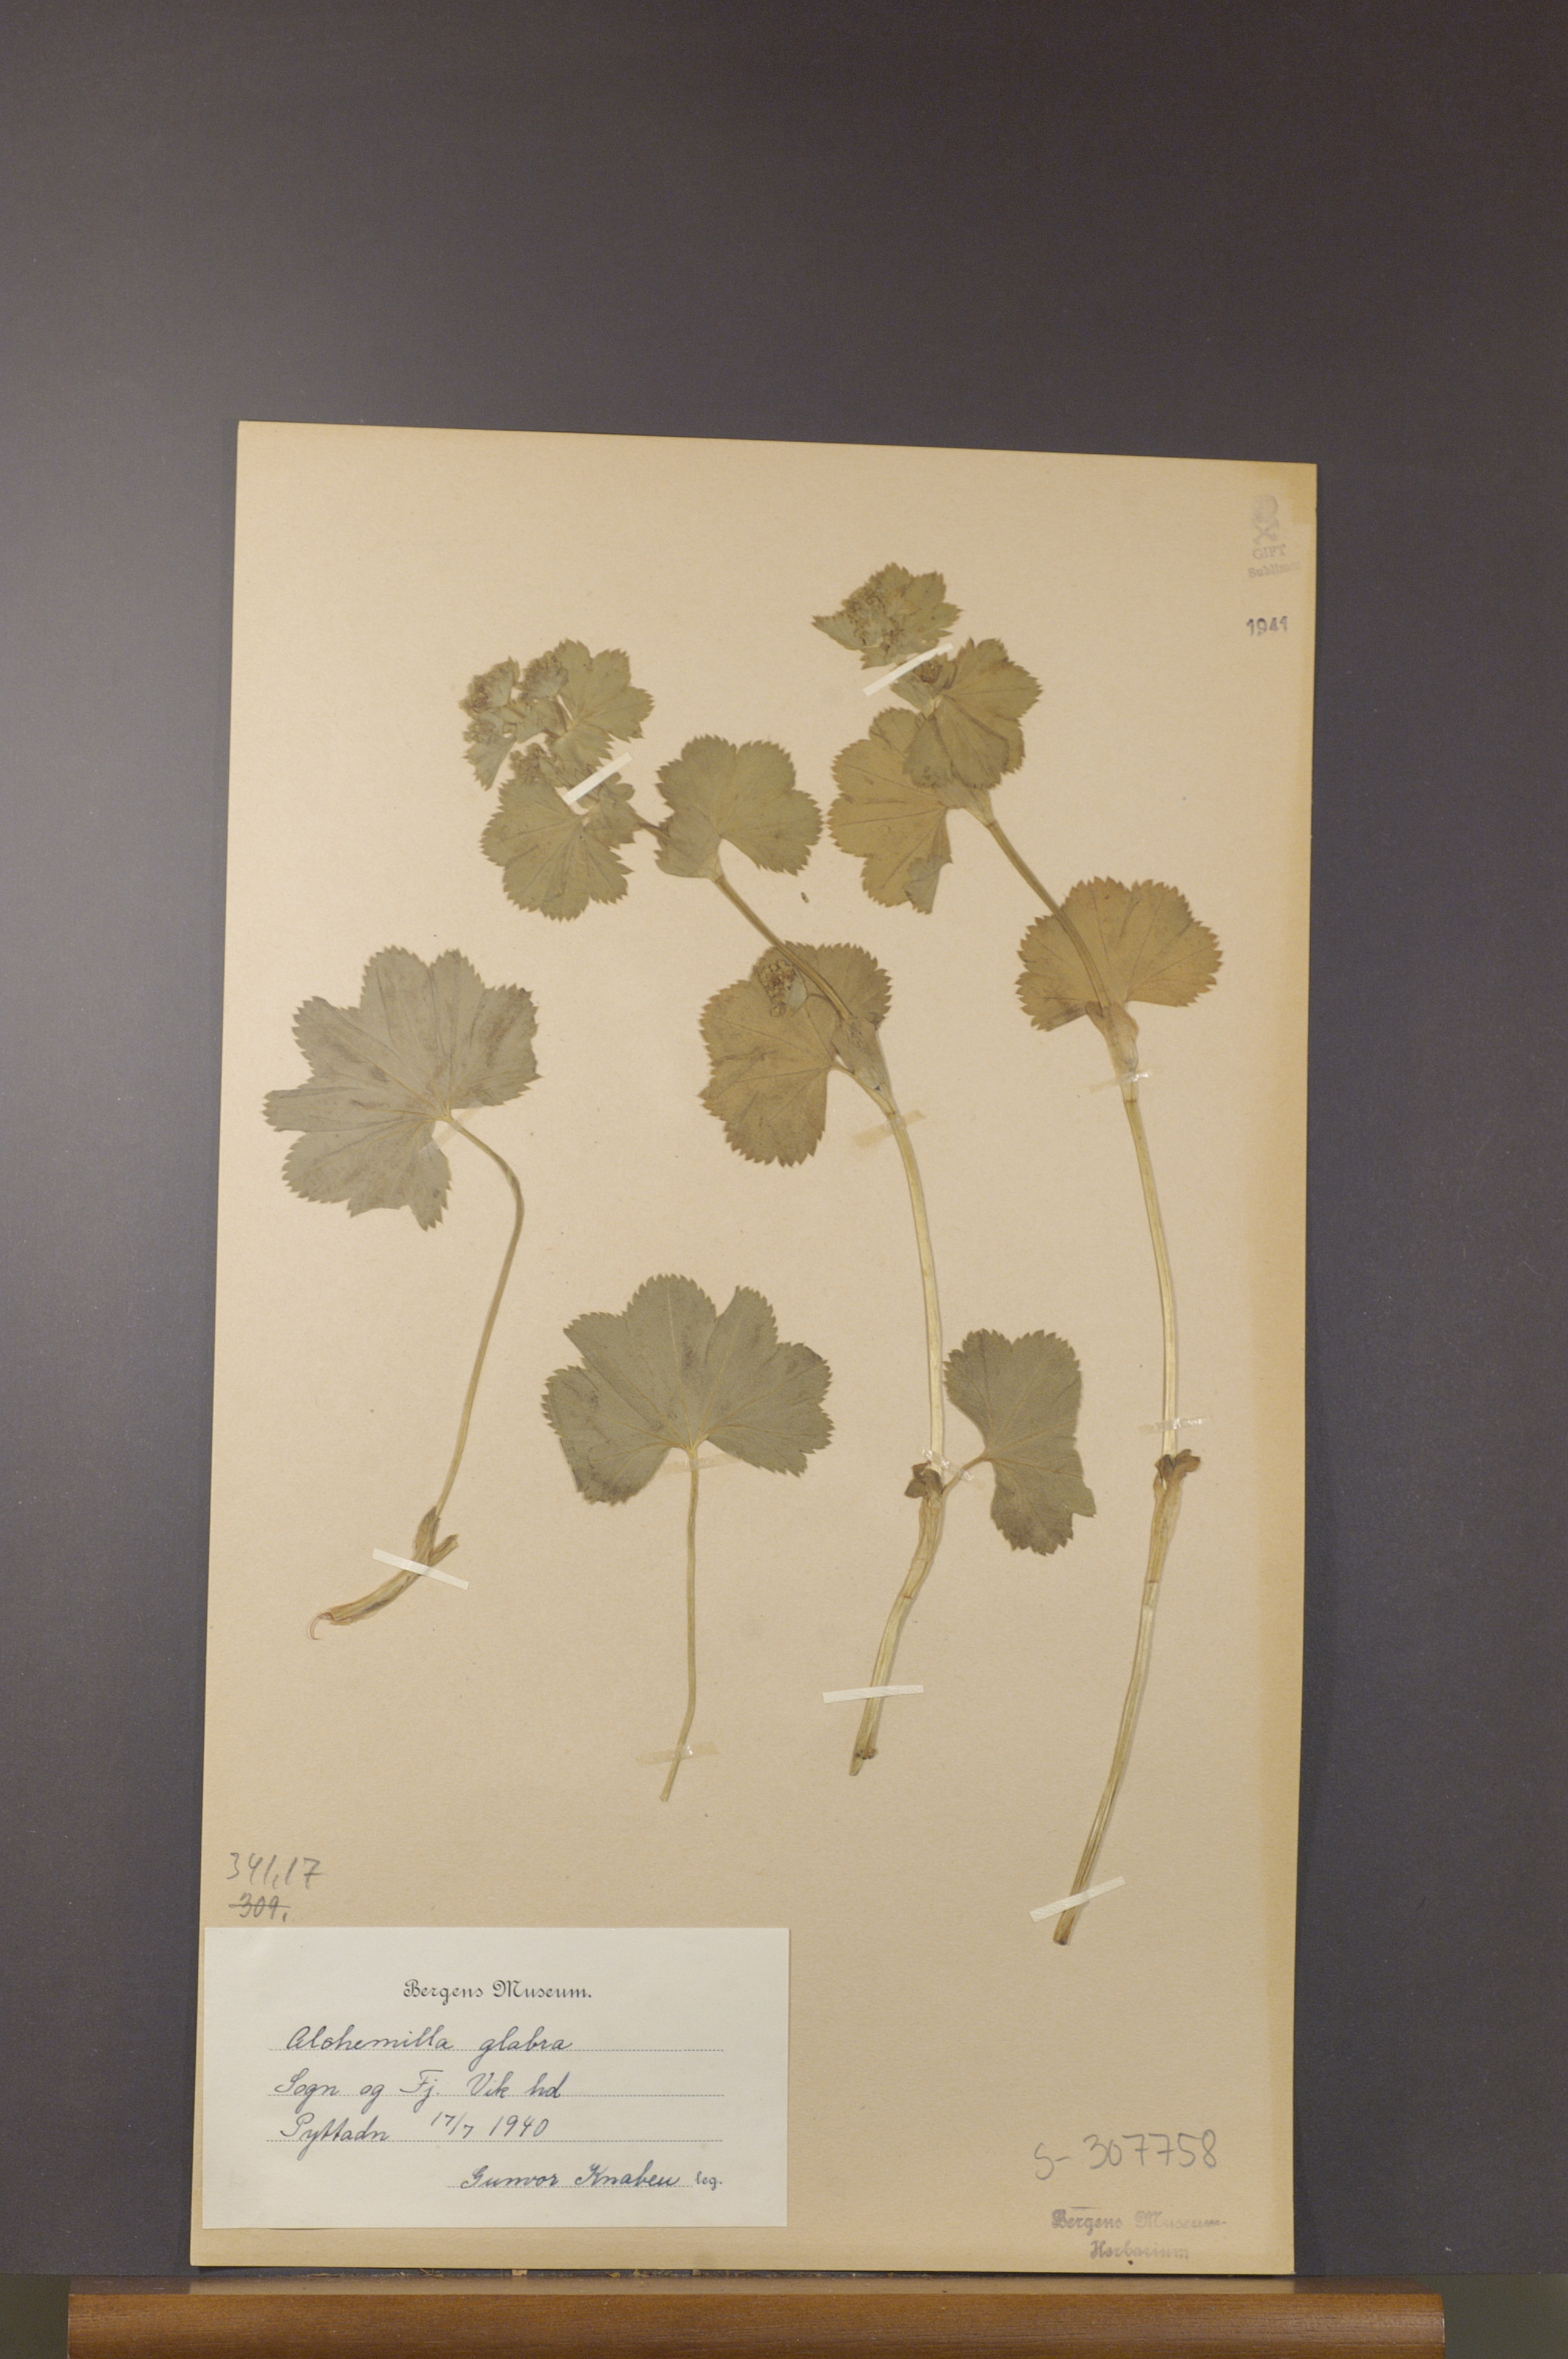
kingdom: Plantae
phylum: Tracheophyta
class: Magnoliopsida
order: Rosales
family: Rosaceae
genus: Alchemilla
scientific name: Alchemilla glabra
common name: Smooth lady's-mantle
